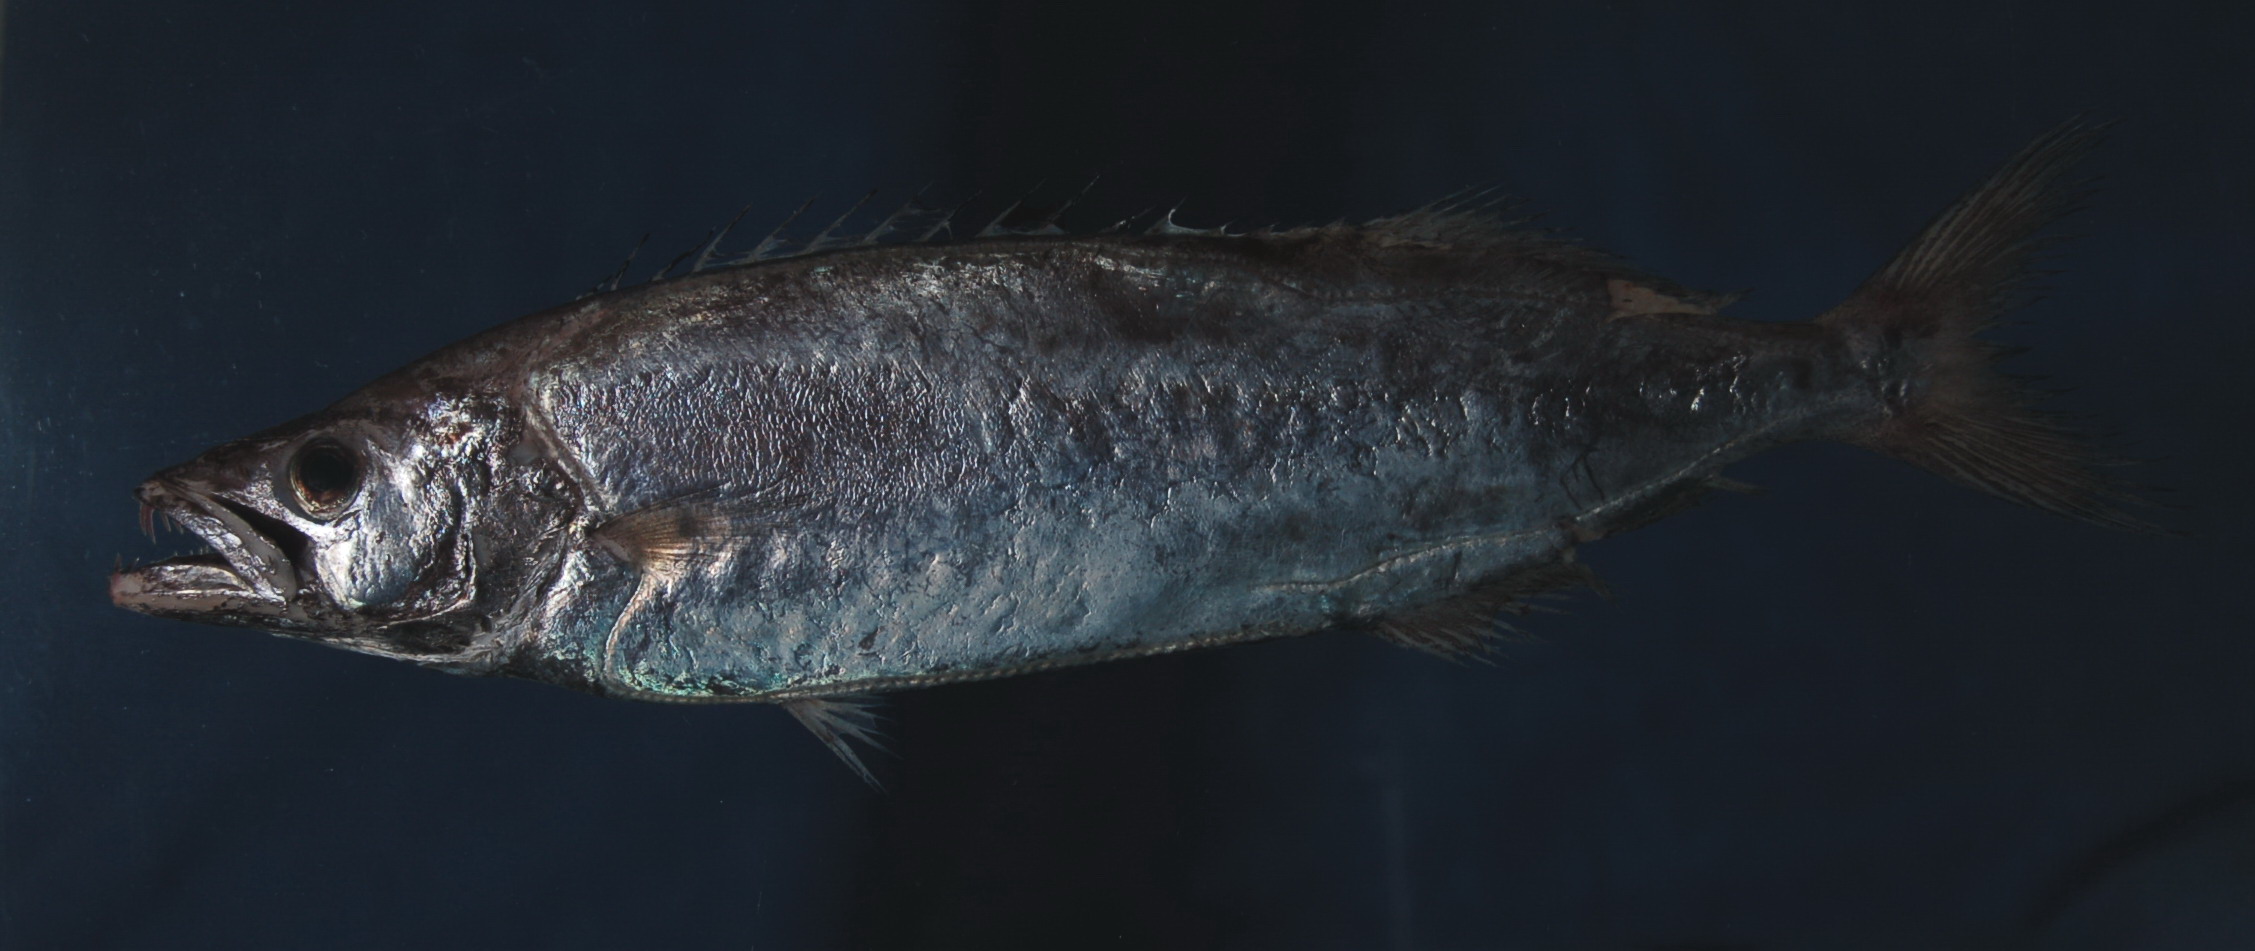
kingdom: Animalia
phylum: Chordata
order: Perciformes
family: Gempylidae
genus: Neoepinnula
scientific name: Neoepinnula orientalis
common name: Sackfish
